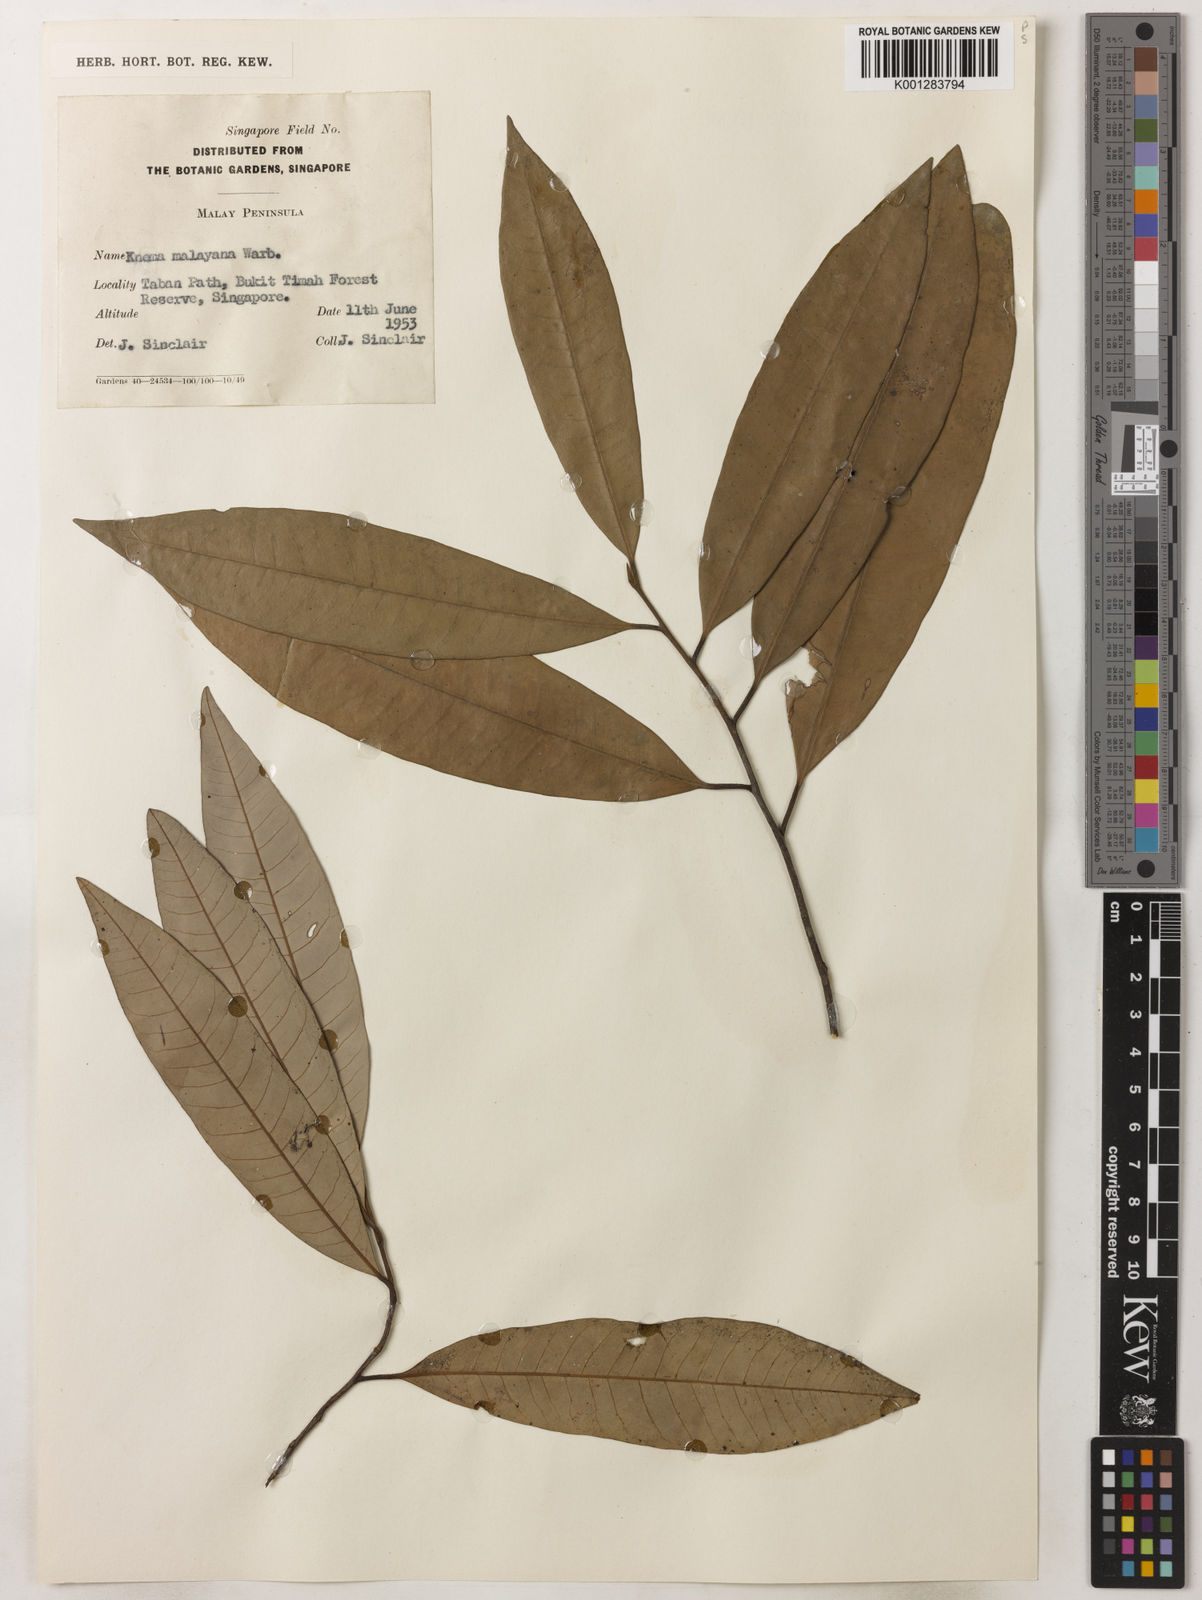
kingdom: Plantae
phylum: Tracheophyta
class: Magnoliopsida
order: Magnoliales
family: Myristicaceae
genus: Knema
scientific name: Knema malayana
